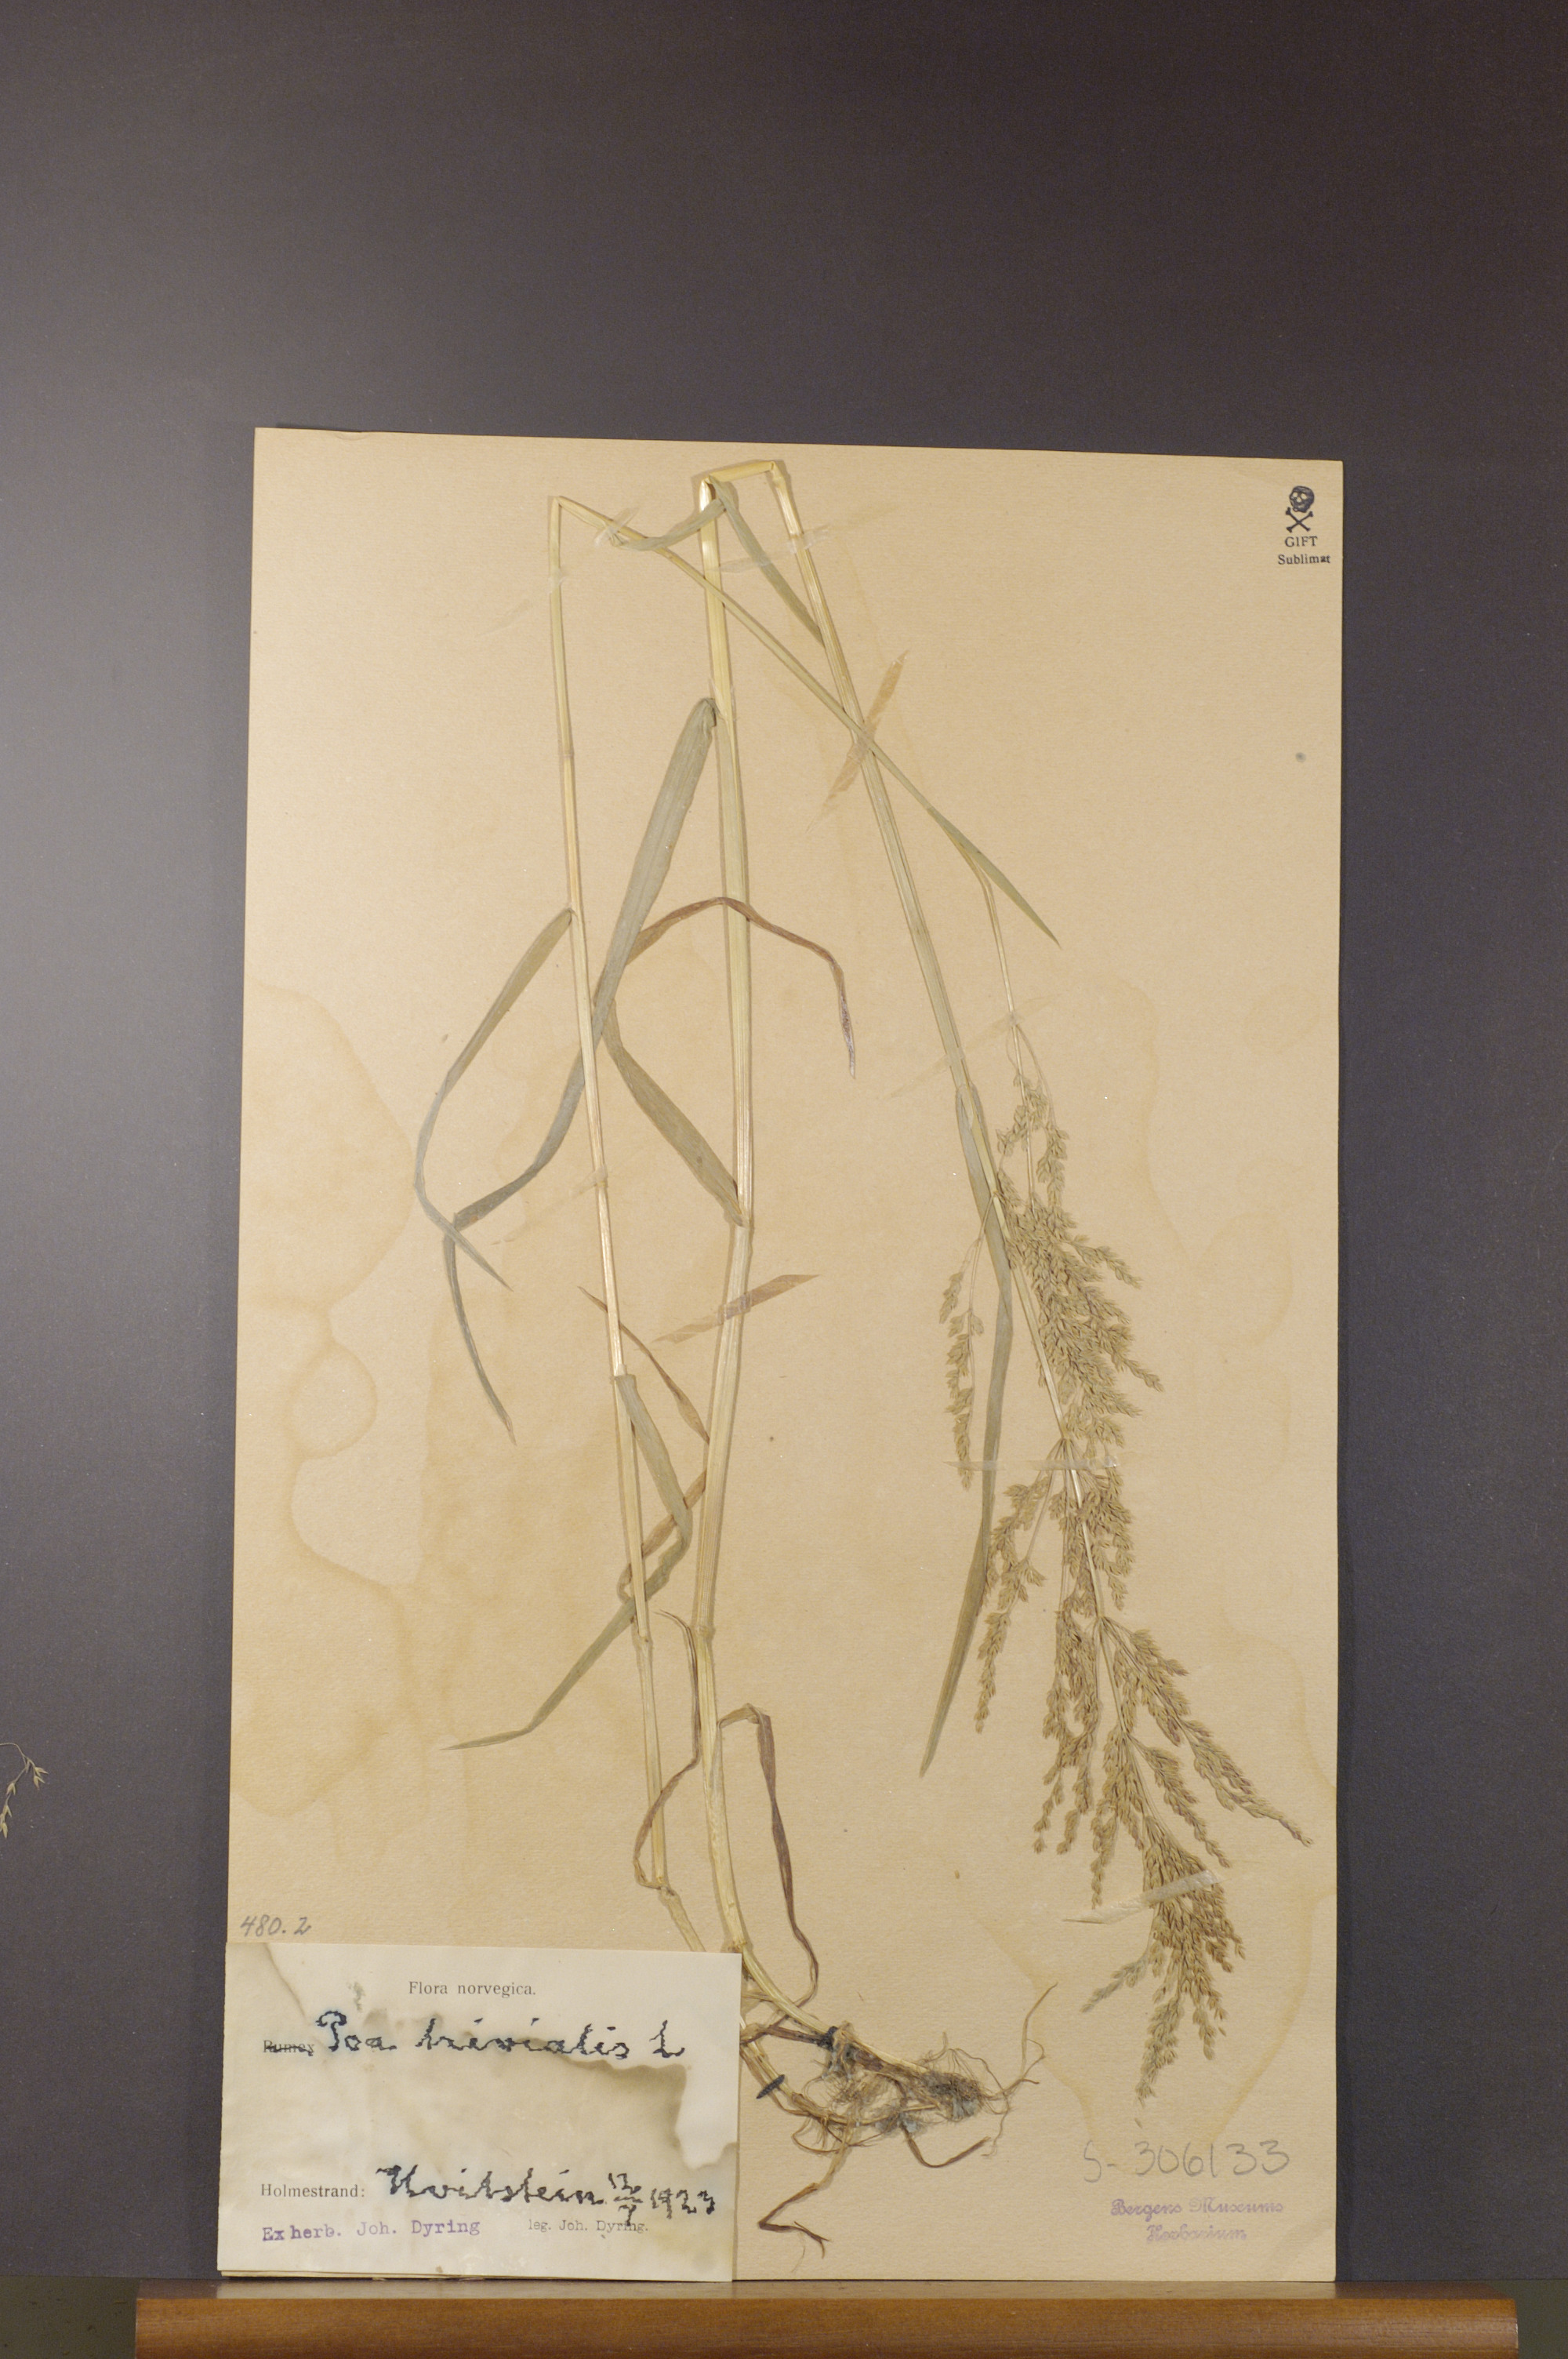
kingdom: Plantae
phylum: Tracheophyta
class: Liliopsida
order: Poales
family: Poaceae
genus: Poa
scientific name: Poa trivialis
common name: Rough bluegrass
